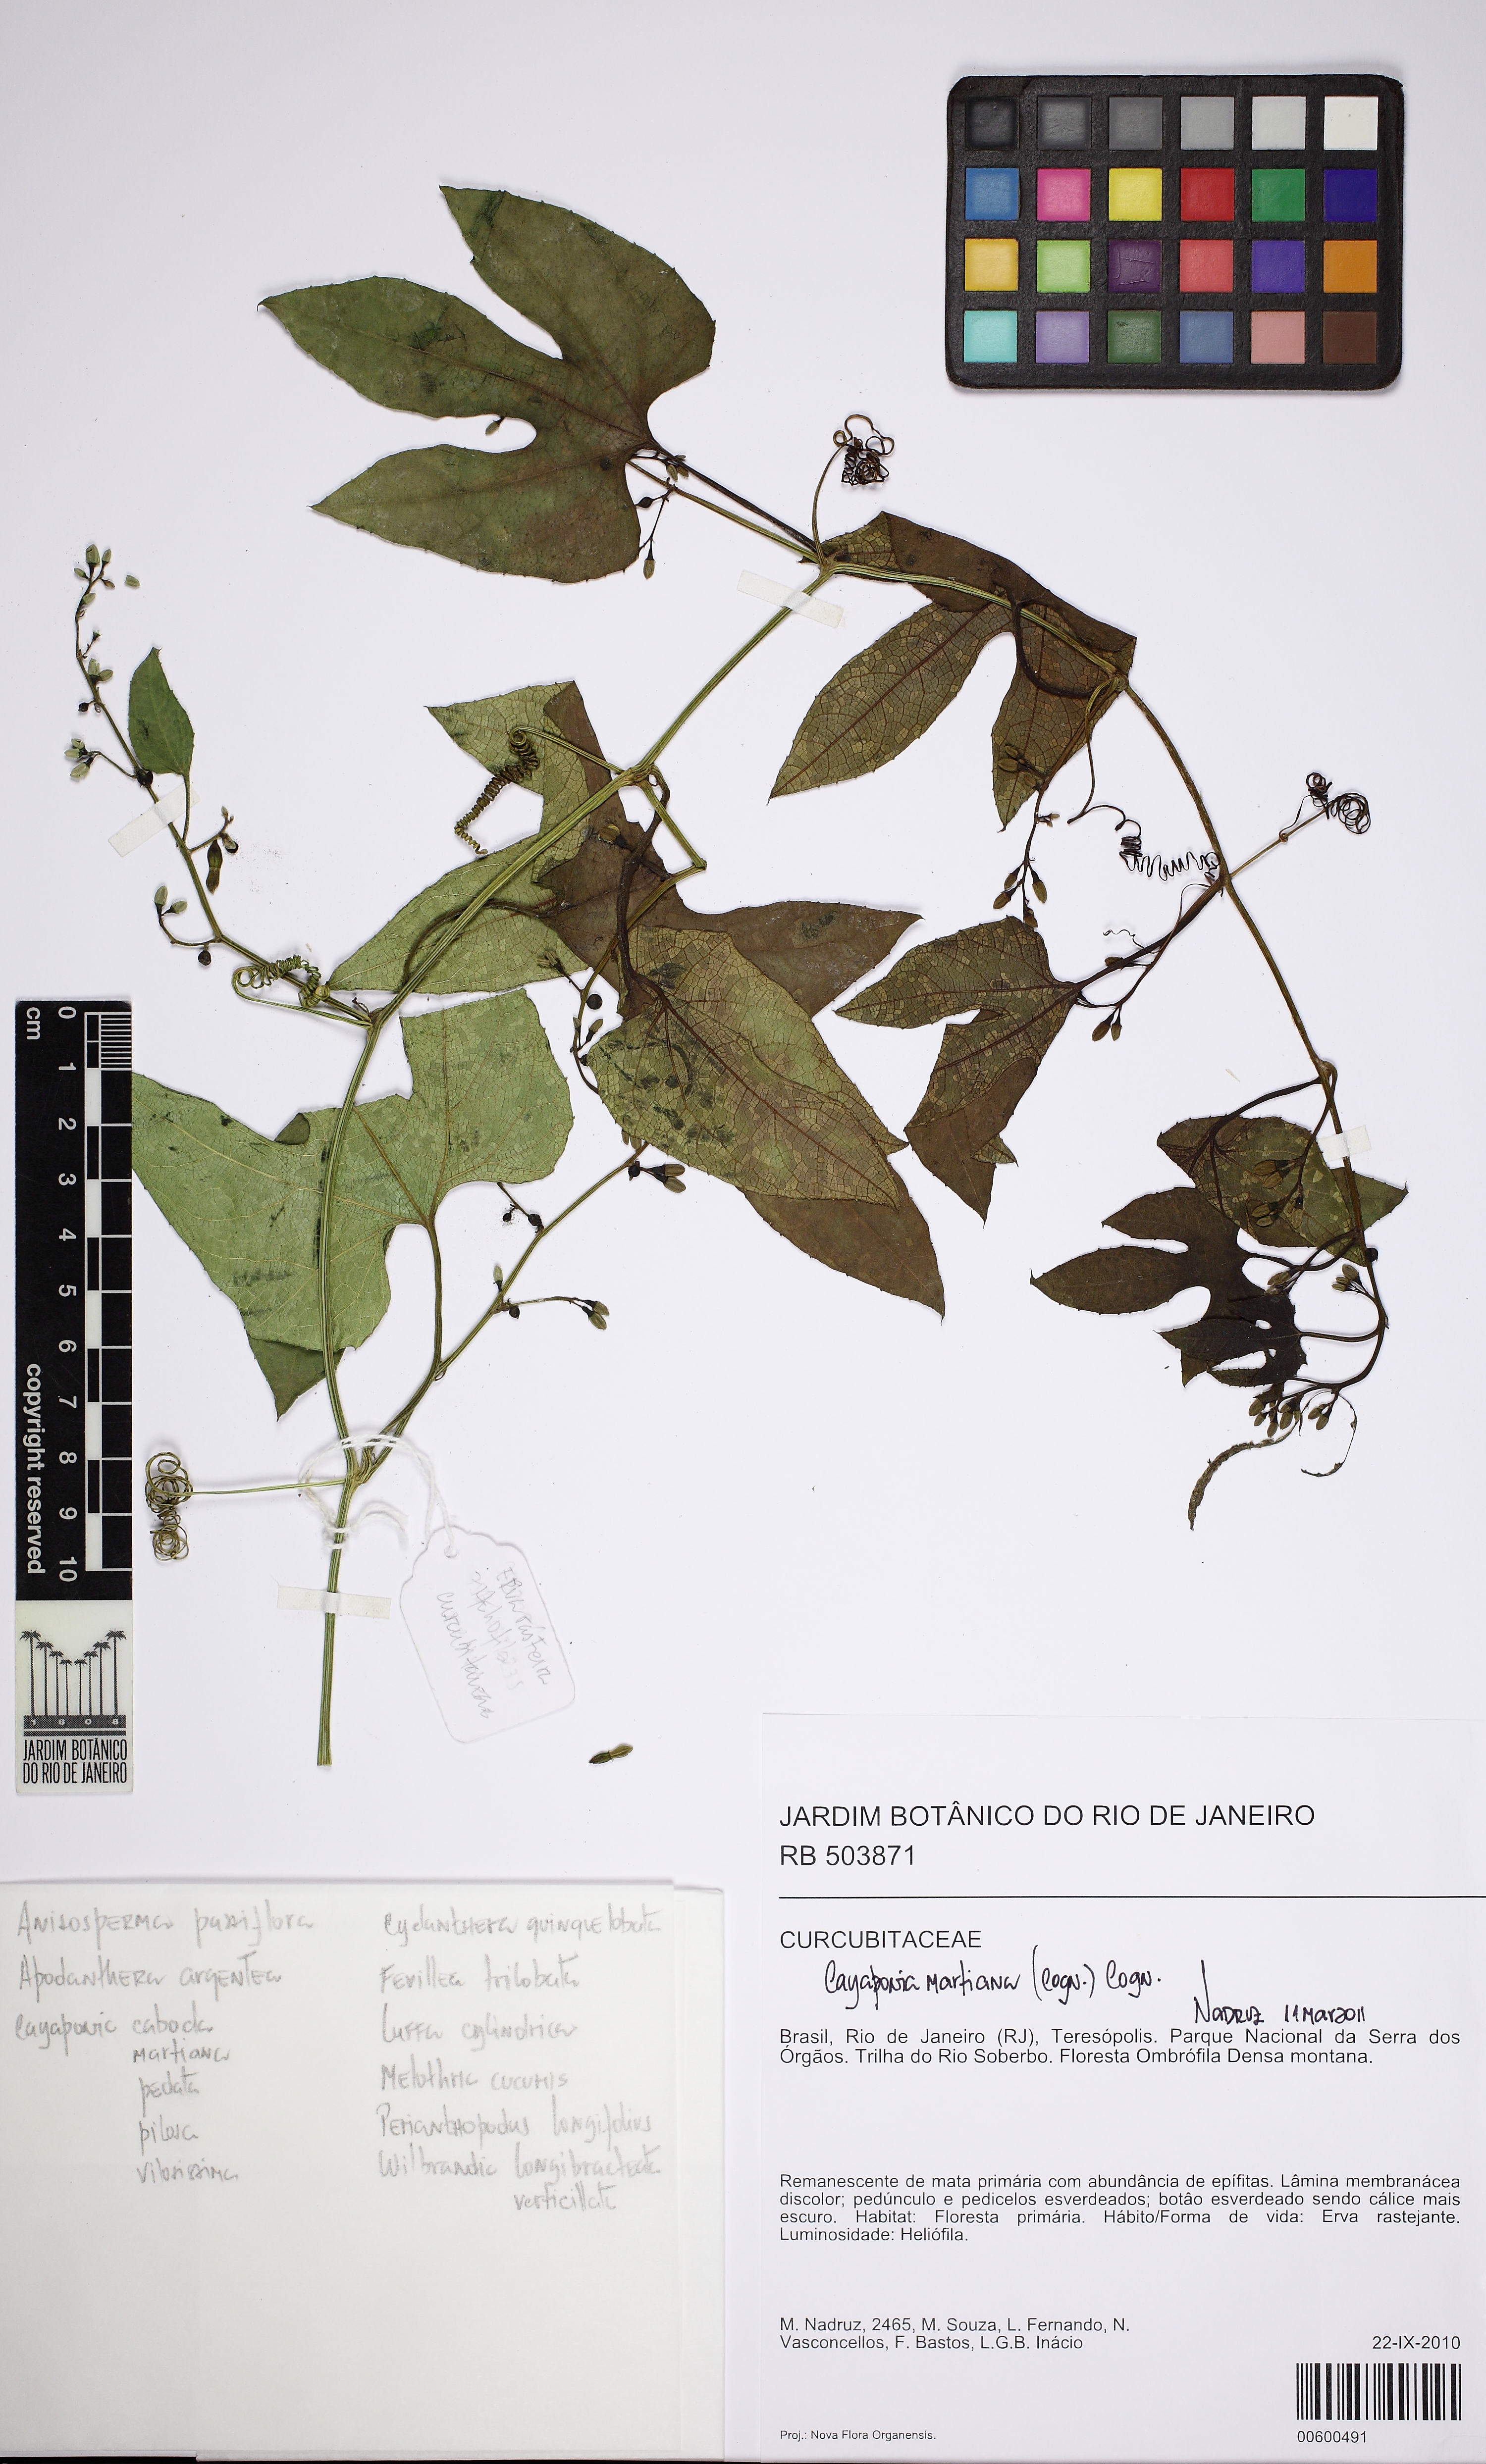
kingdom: Plantae
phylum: Tracheophyta
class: Magnoliopsida
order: Cucurbitales
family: Cucurbitaceae
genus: Cayaponia
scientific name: Cayaponia martiana
